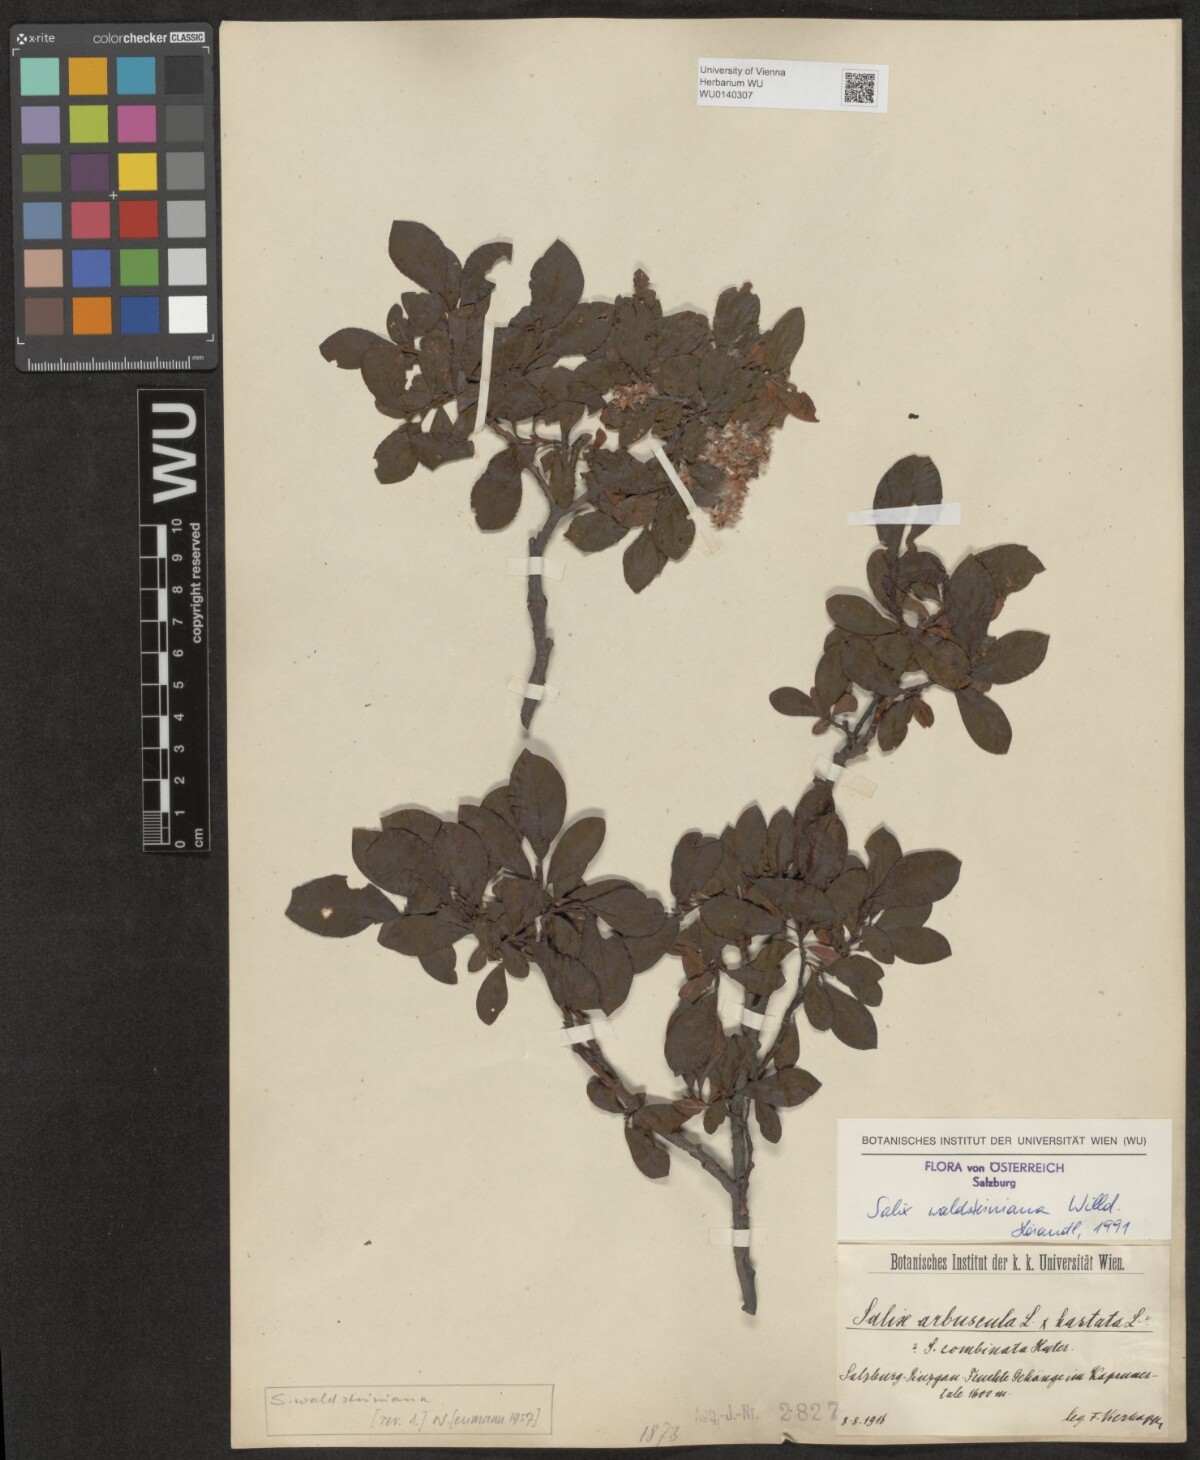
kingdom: Plantae
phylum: Tracheophyta
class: Magnoliopsida
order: Malpighiales
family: Salicaceae
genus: Salix
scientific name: Salix waldsteiniana
